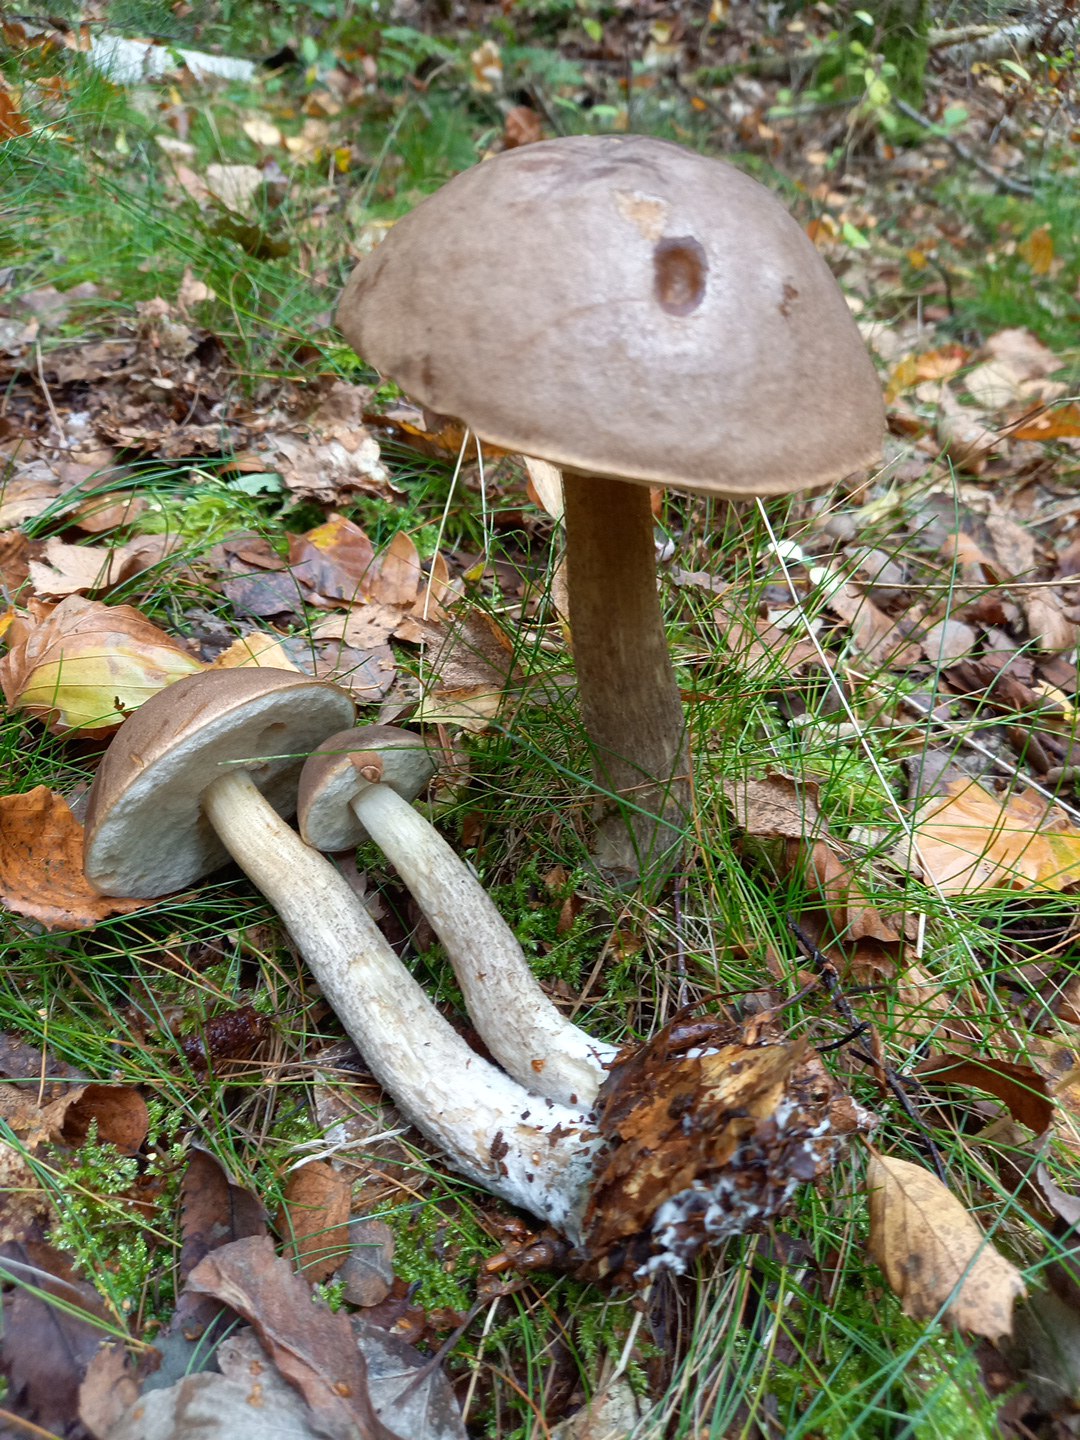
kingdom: Fungi
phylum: Basidiomycota
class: Agaricomycetes
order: Boletales
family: Boletaceae
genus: Leccinum
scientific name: Leccinum
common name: skælrørhat
